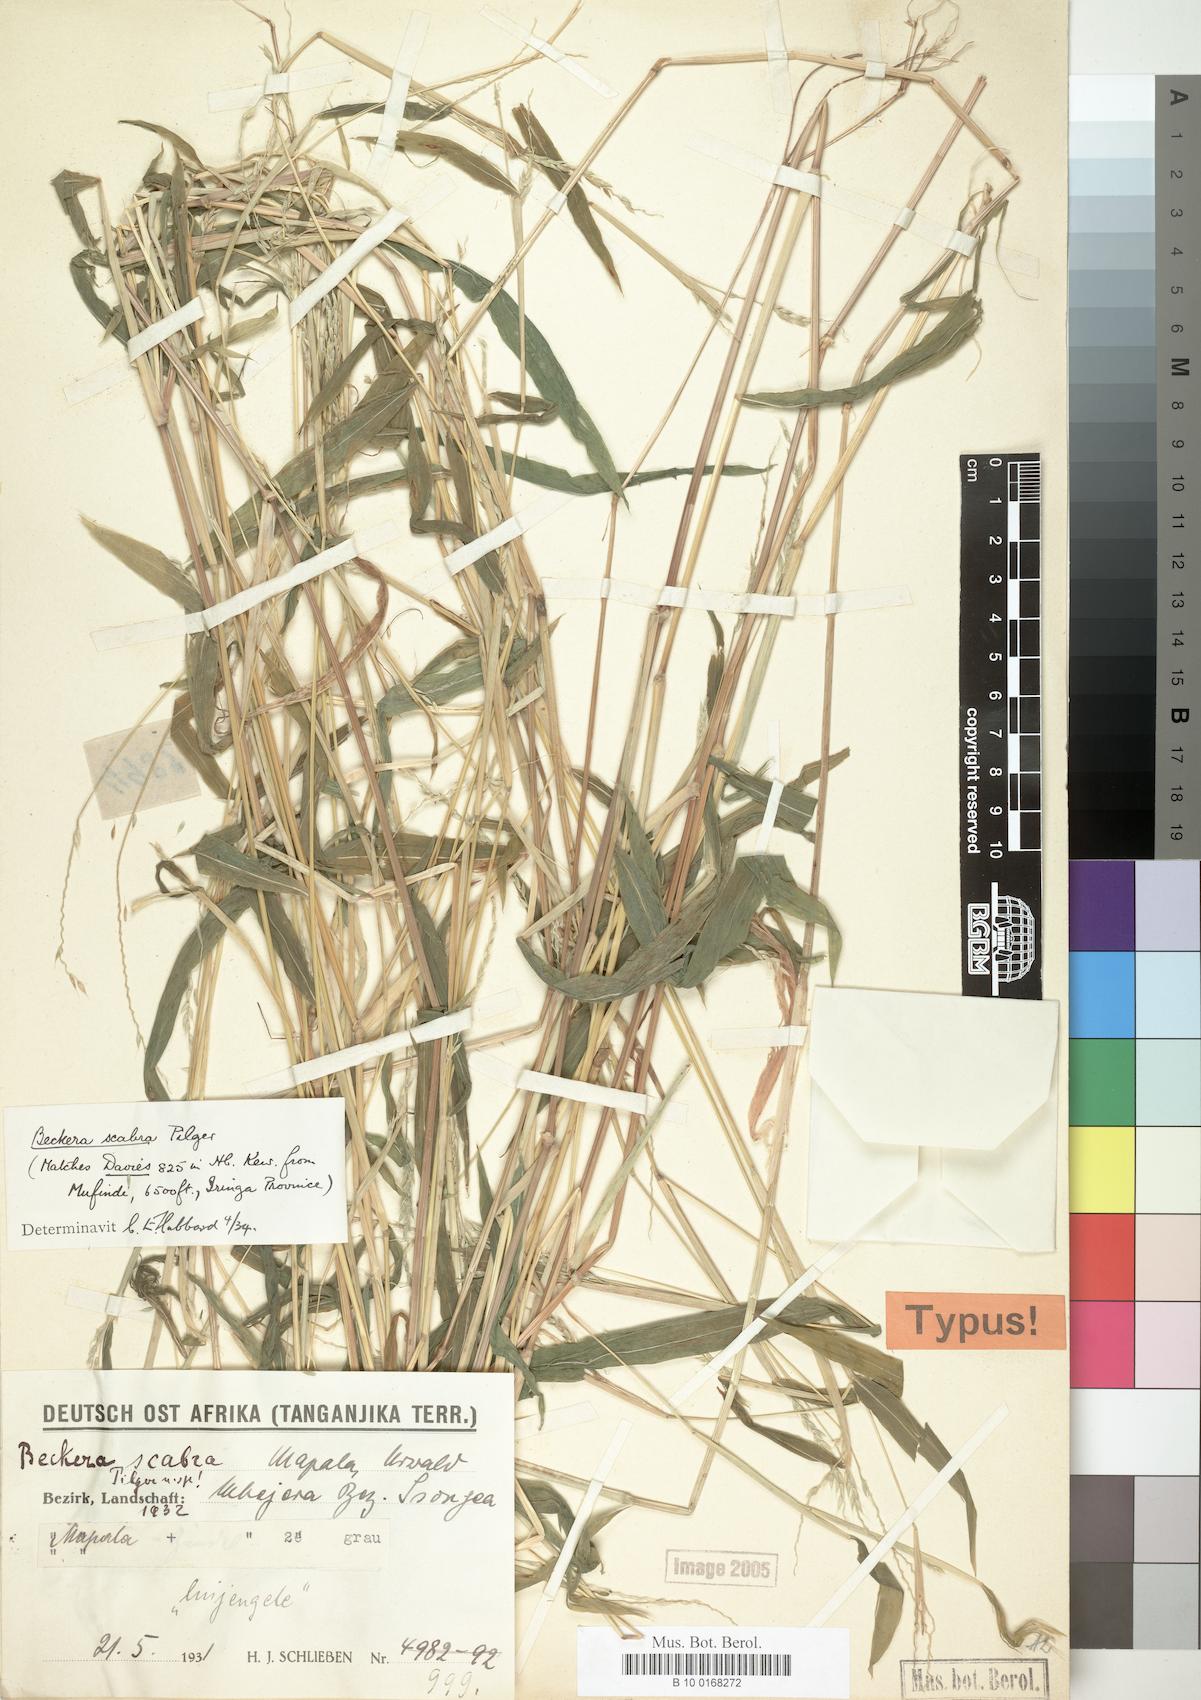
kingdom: Plantae
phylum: Tracheophyta
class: Liliopsida
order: Poales
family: Poaceae
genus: Snowdenia
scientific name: Snowdenia petitiana
